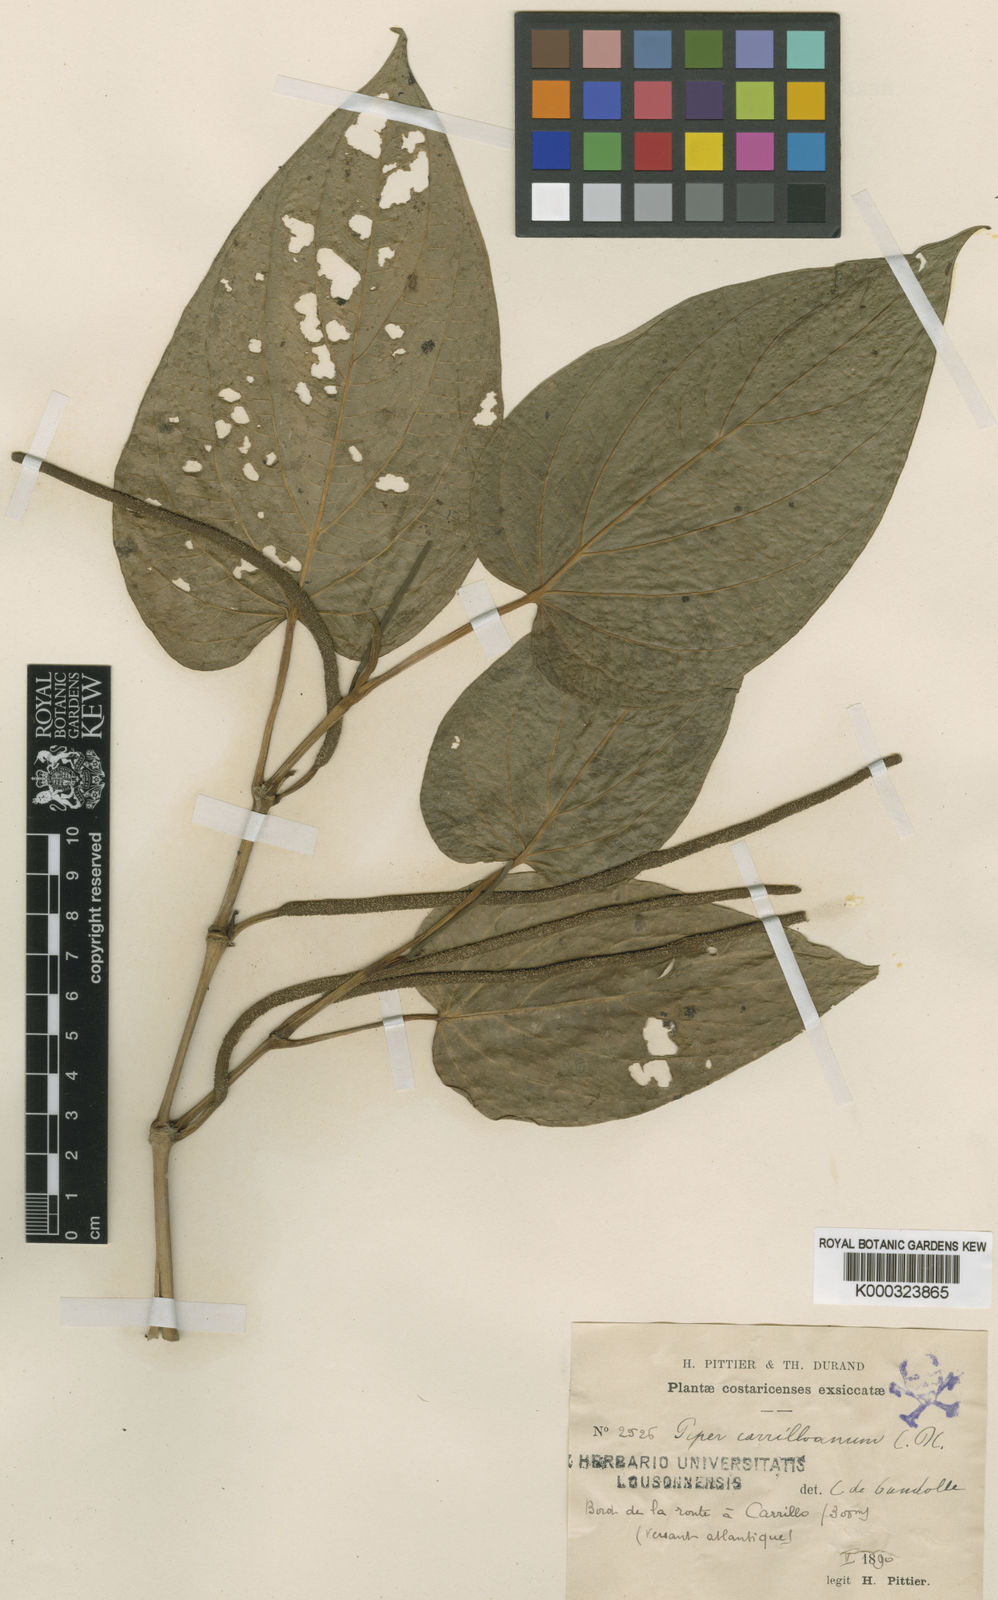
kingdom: Plantae
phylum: Tracheophyta
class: Magnoliopsida
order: Piperales
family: Piperaceae
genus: Piper
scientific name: Piper carrilloanum
